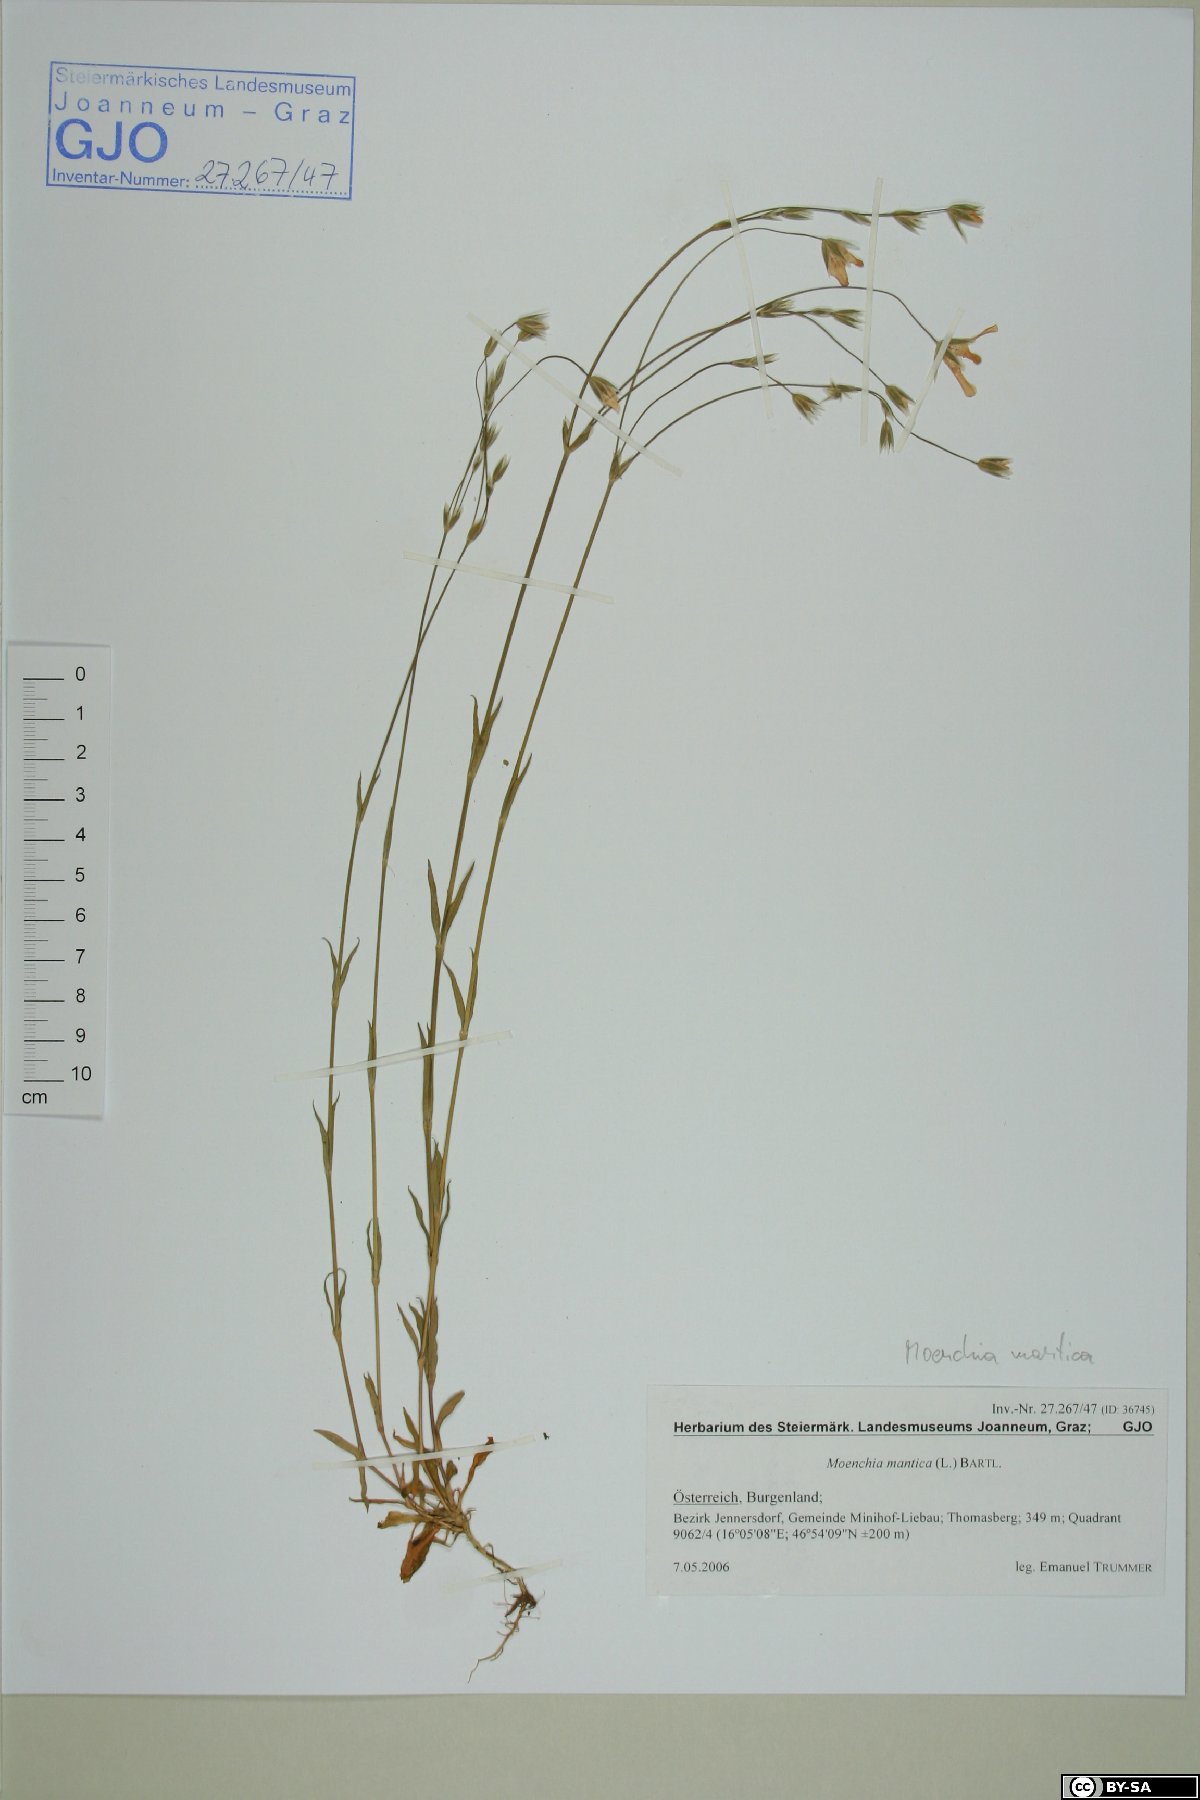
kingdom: Plantae
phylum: Tracheophyta
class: Magnoliopsida
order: Caryophyllales
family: Caryophyllaceae
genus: Moenchia
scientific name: Moenchia mantica
